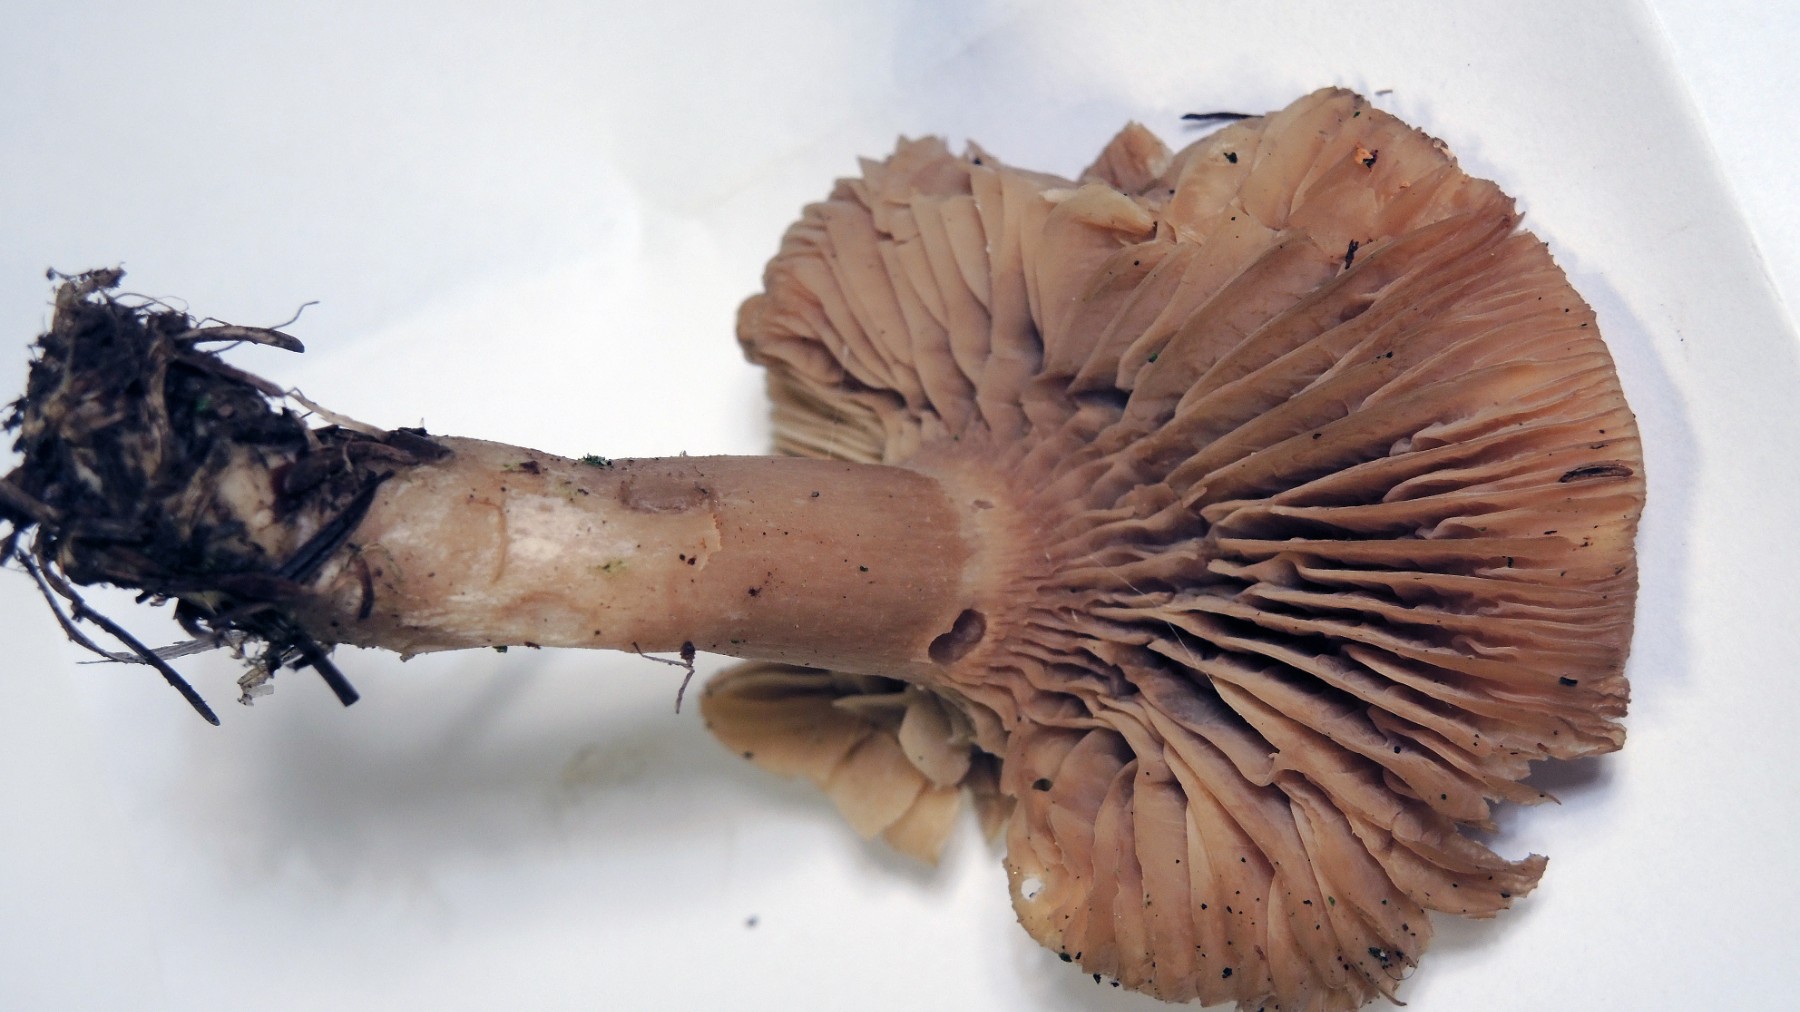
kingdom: Fungi
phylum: Basidiomycota
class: Agaricomycetes
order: Agaricales
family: Pseudoclitocybaceae
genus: Musumecia
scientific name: Musumecia bettlachensis
